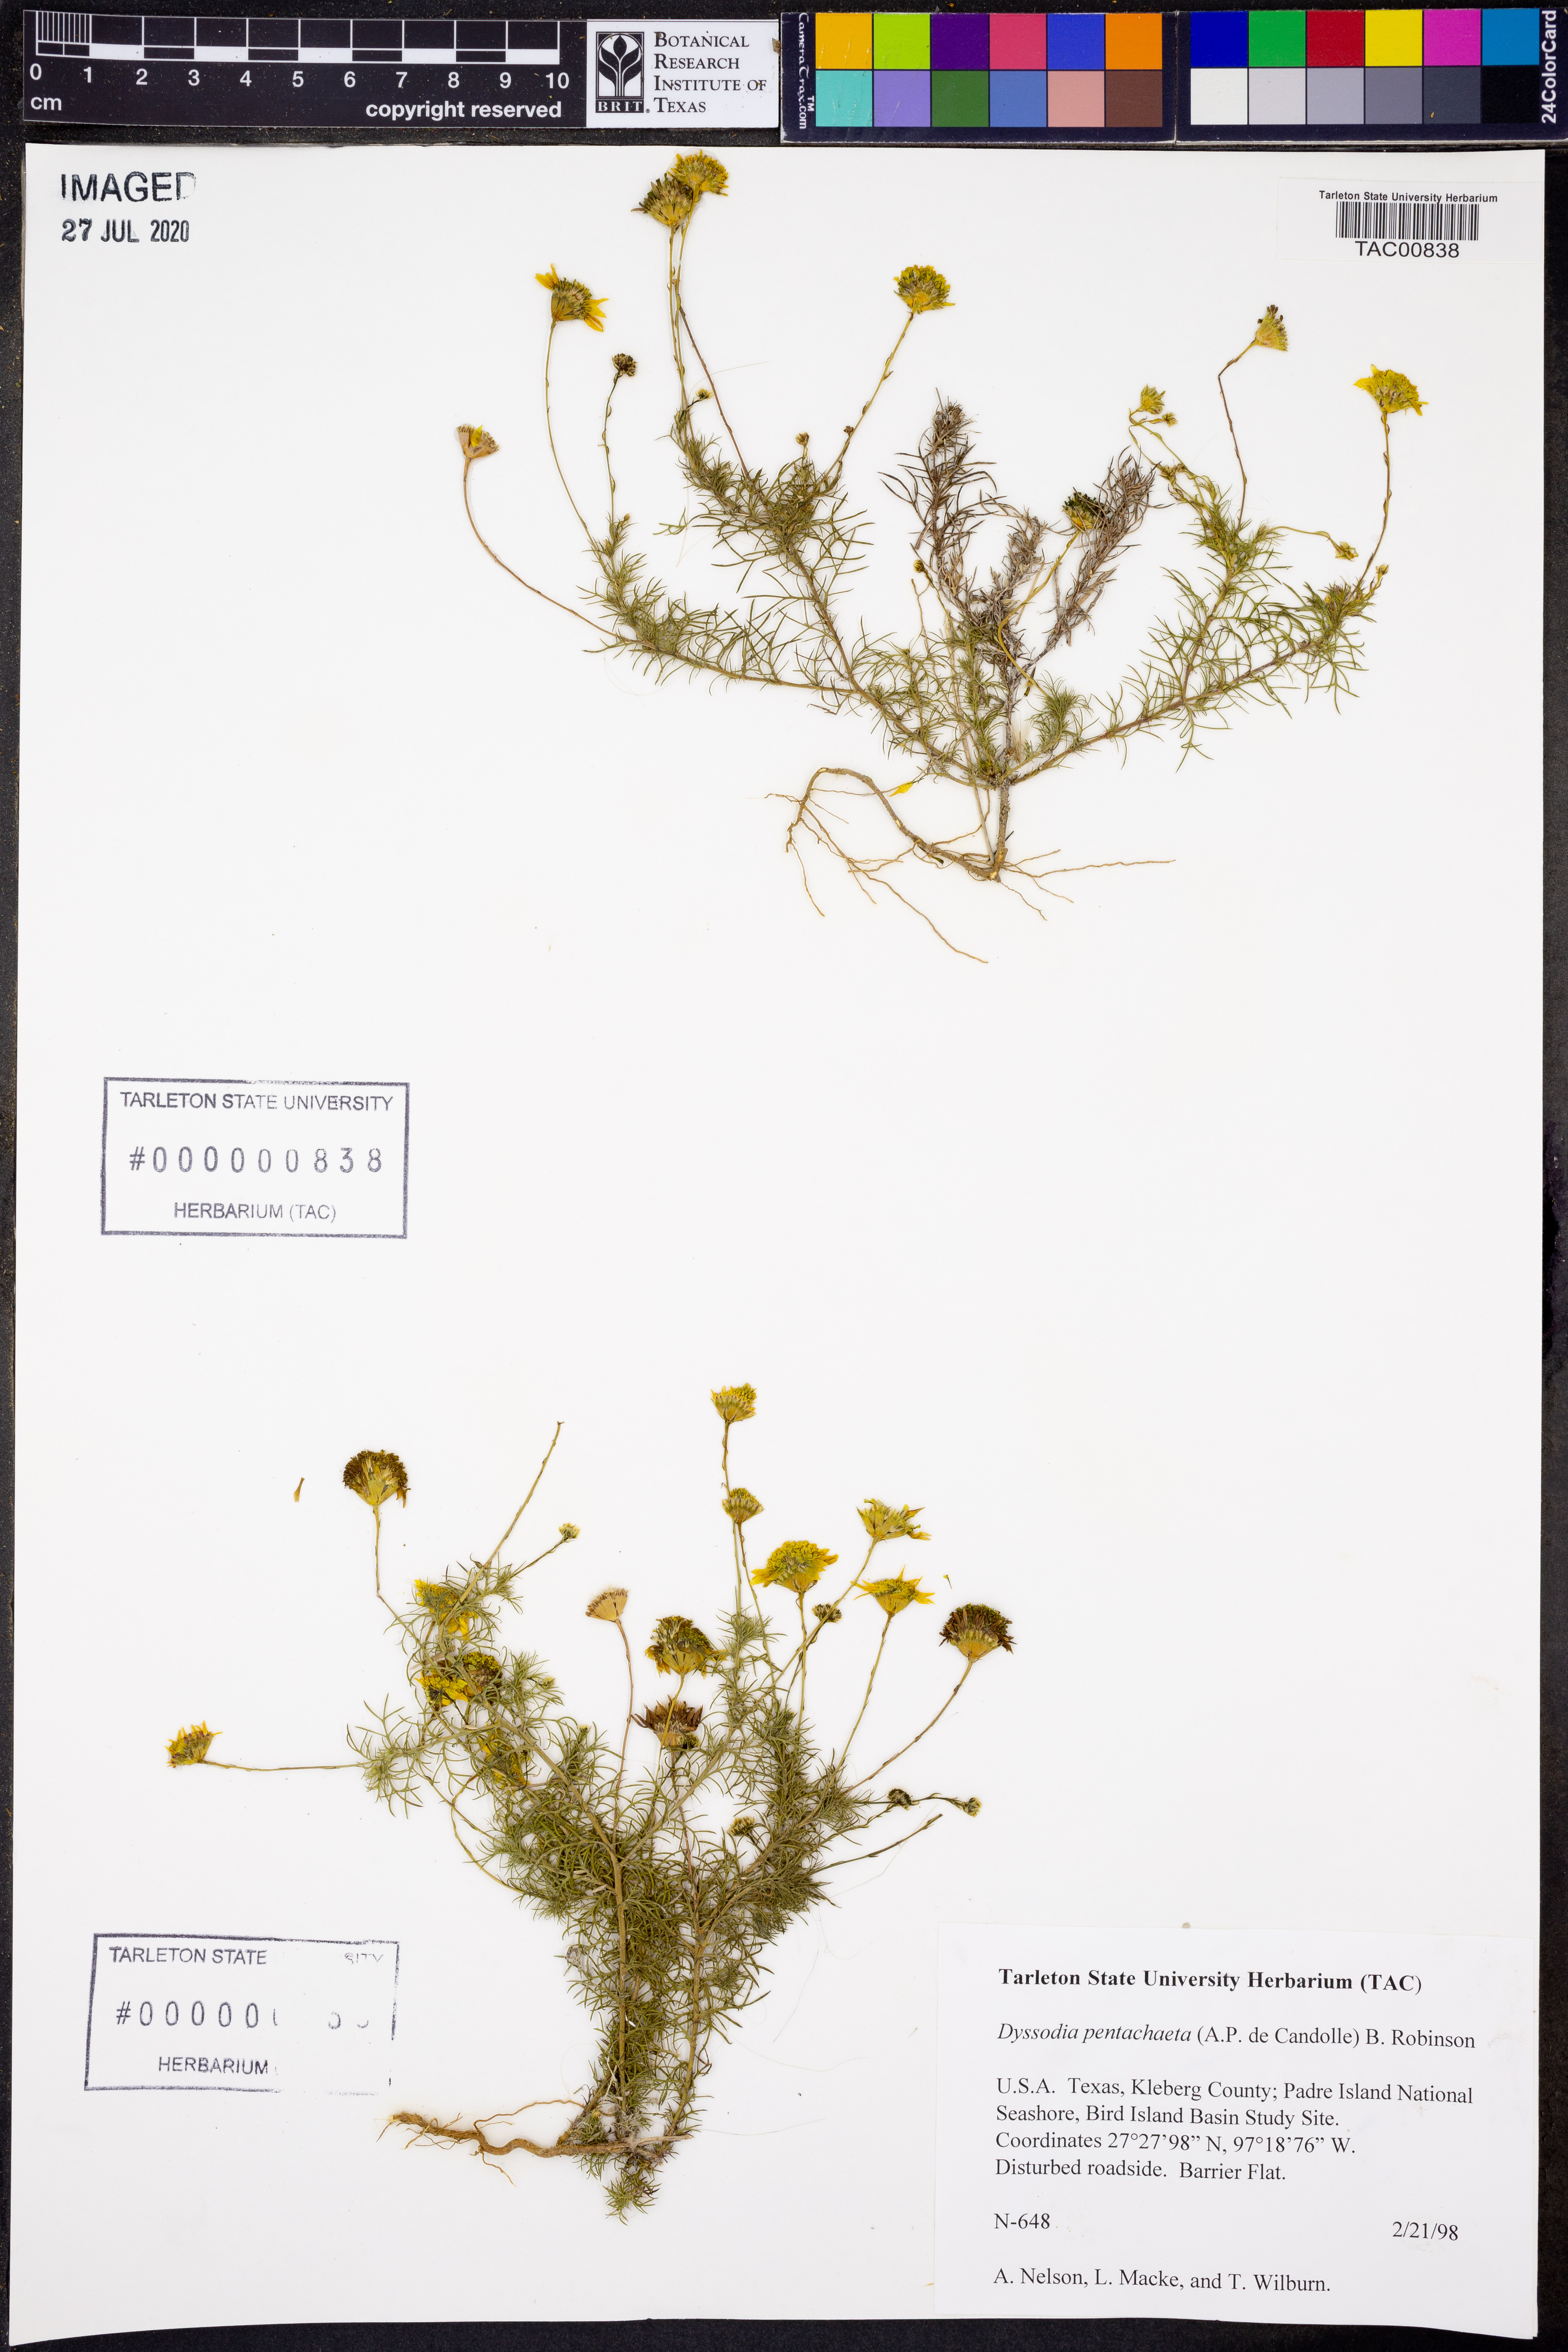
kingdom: Plantae
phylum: Tracheophyta
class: Magnoliopsida
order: Asterales
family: Asteraceae
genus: Thymophylla
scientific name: Thymophylla pentachaeta
